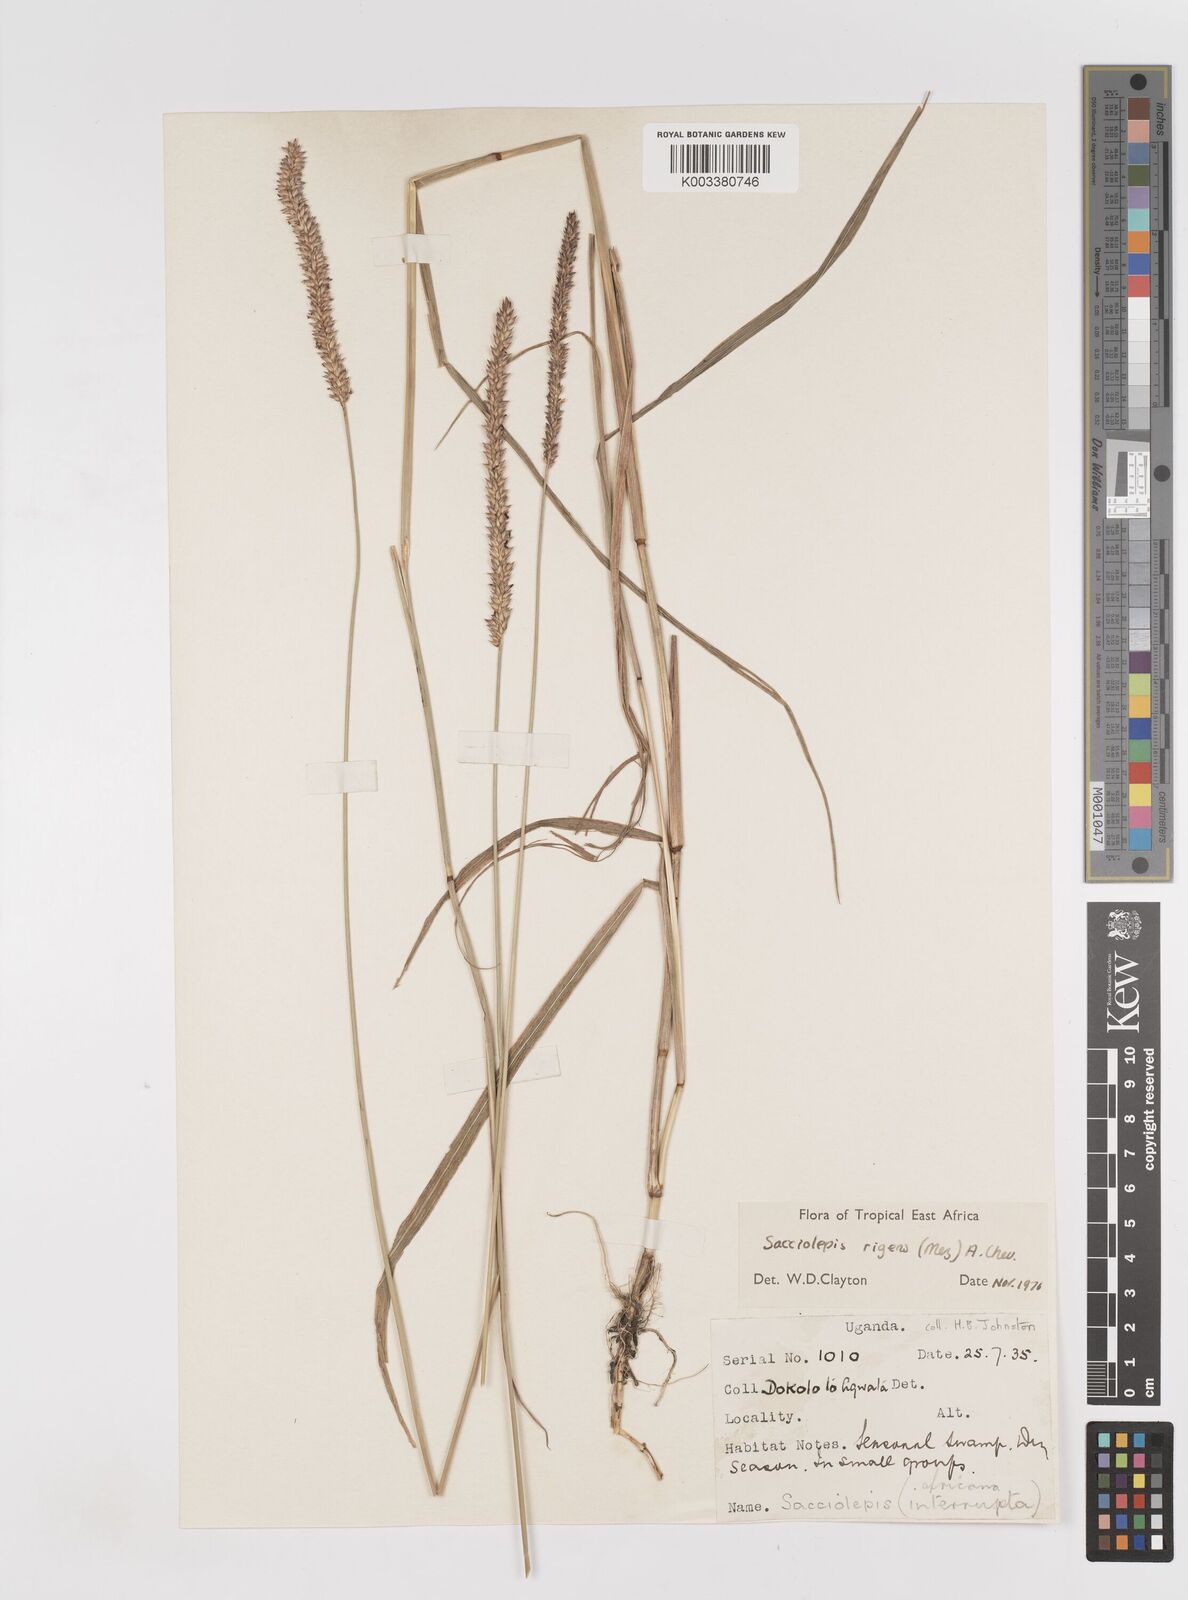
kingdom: Plantae
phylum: Tracheophyta
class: Liliopsida
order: Poales
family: Poaceae
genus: Sacciolepis
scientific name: Sacciolepis leptorrhachis
